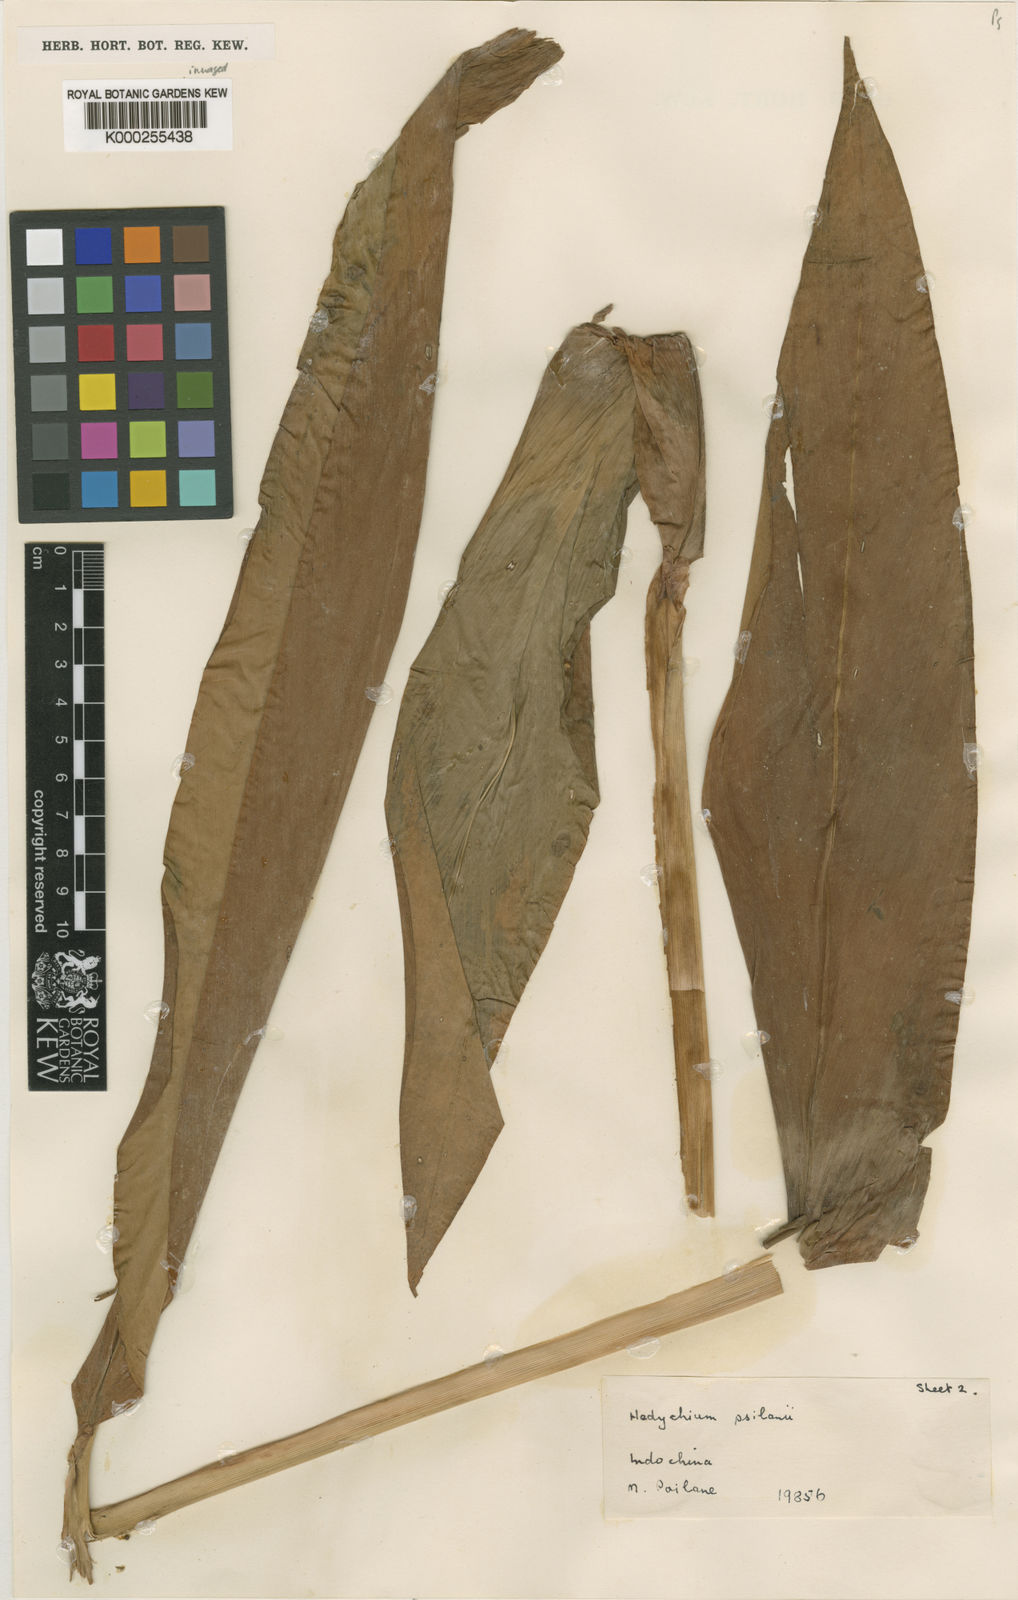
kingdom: Plantae
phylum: Tracheophyta
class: Liliopsida
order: Zingiberales
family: Zingiberaceae
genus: Hedychium
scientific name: Hedychium poilanei
